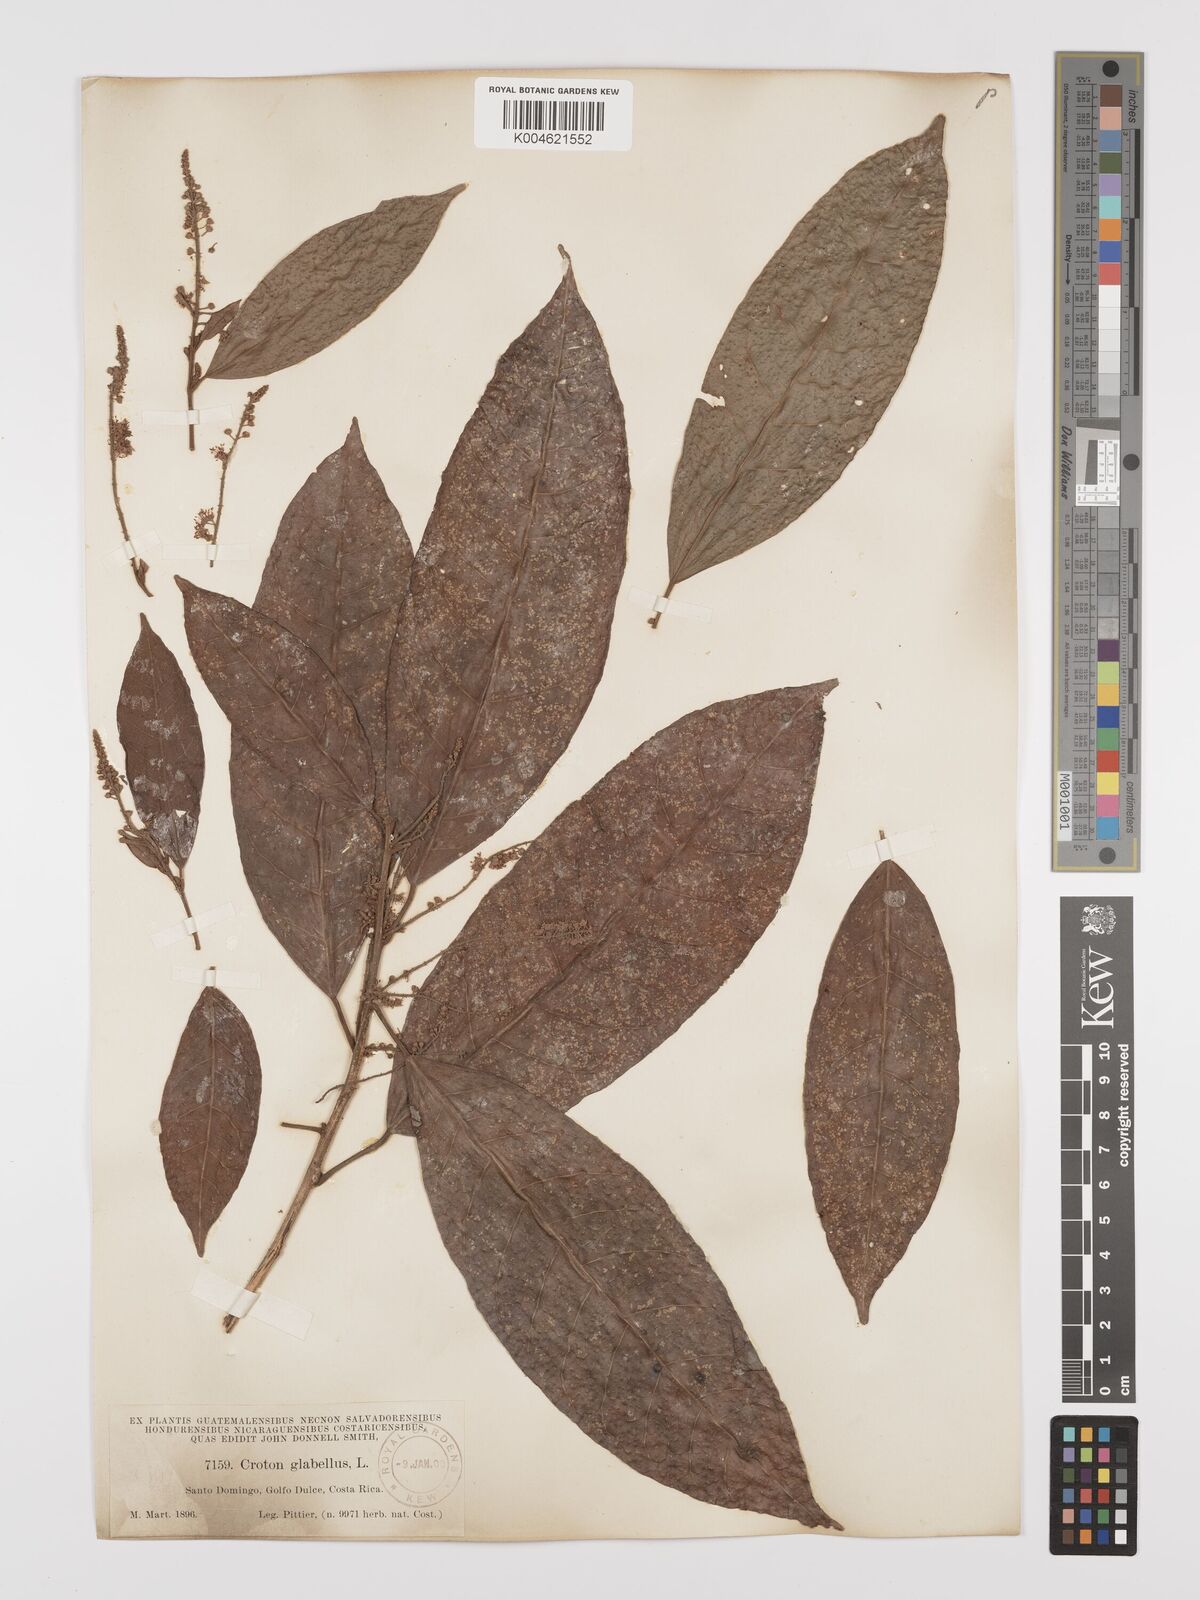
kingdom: Plantae
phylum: Tracheophyta
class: Magnoliopsida
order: Malpighiales
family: Euphorbiaceae
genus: Croton
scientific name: Croton glabellus
